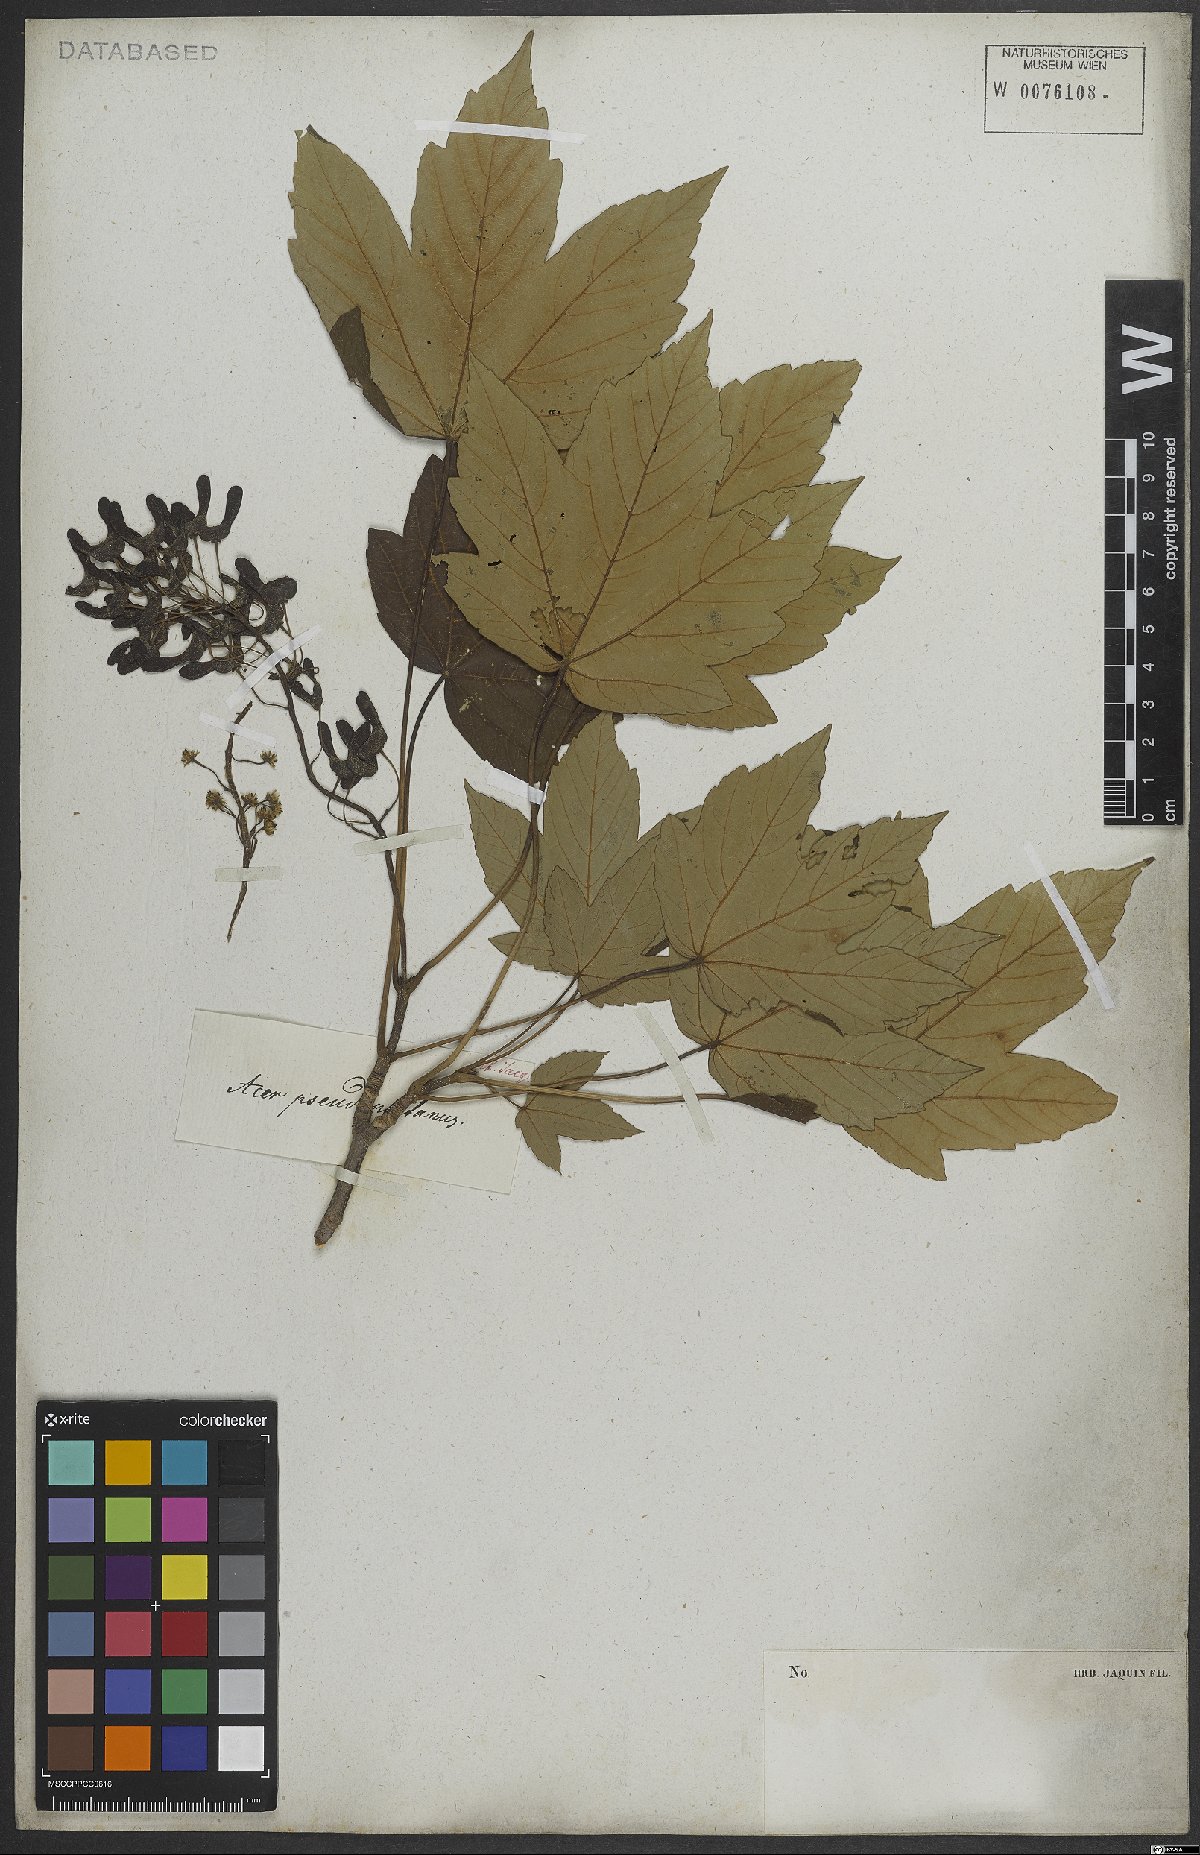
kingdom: Plantae
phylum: Tracheophyta
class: Magnoliopsida
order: Sapindales
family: Sapindaceae
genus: Acer
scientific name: Acer pseudoplatanus
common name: Sycamore
